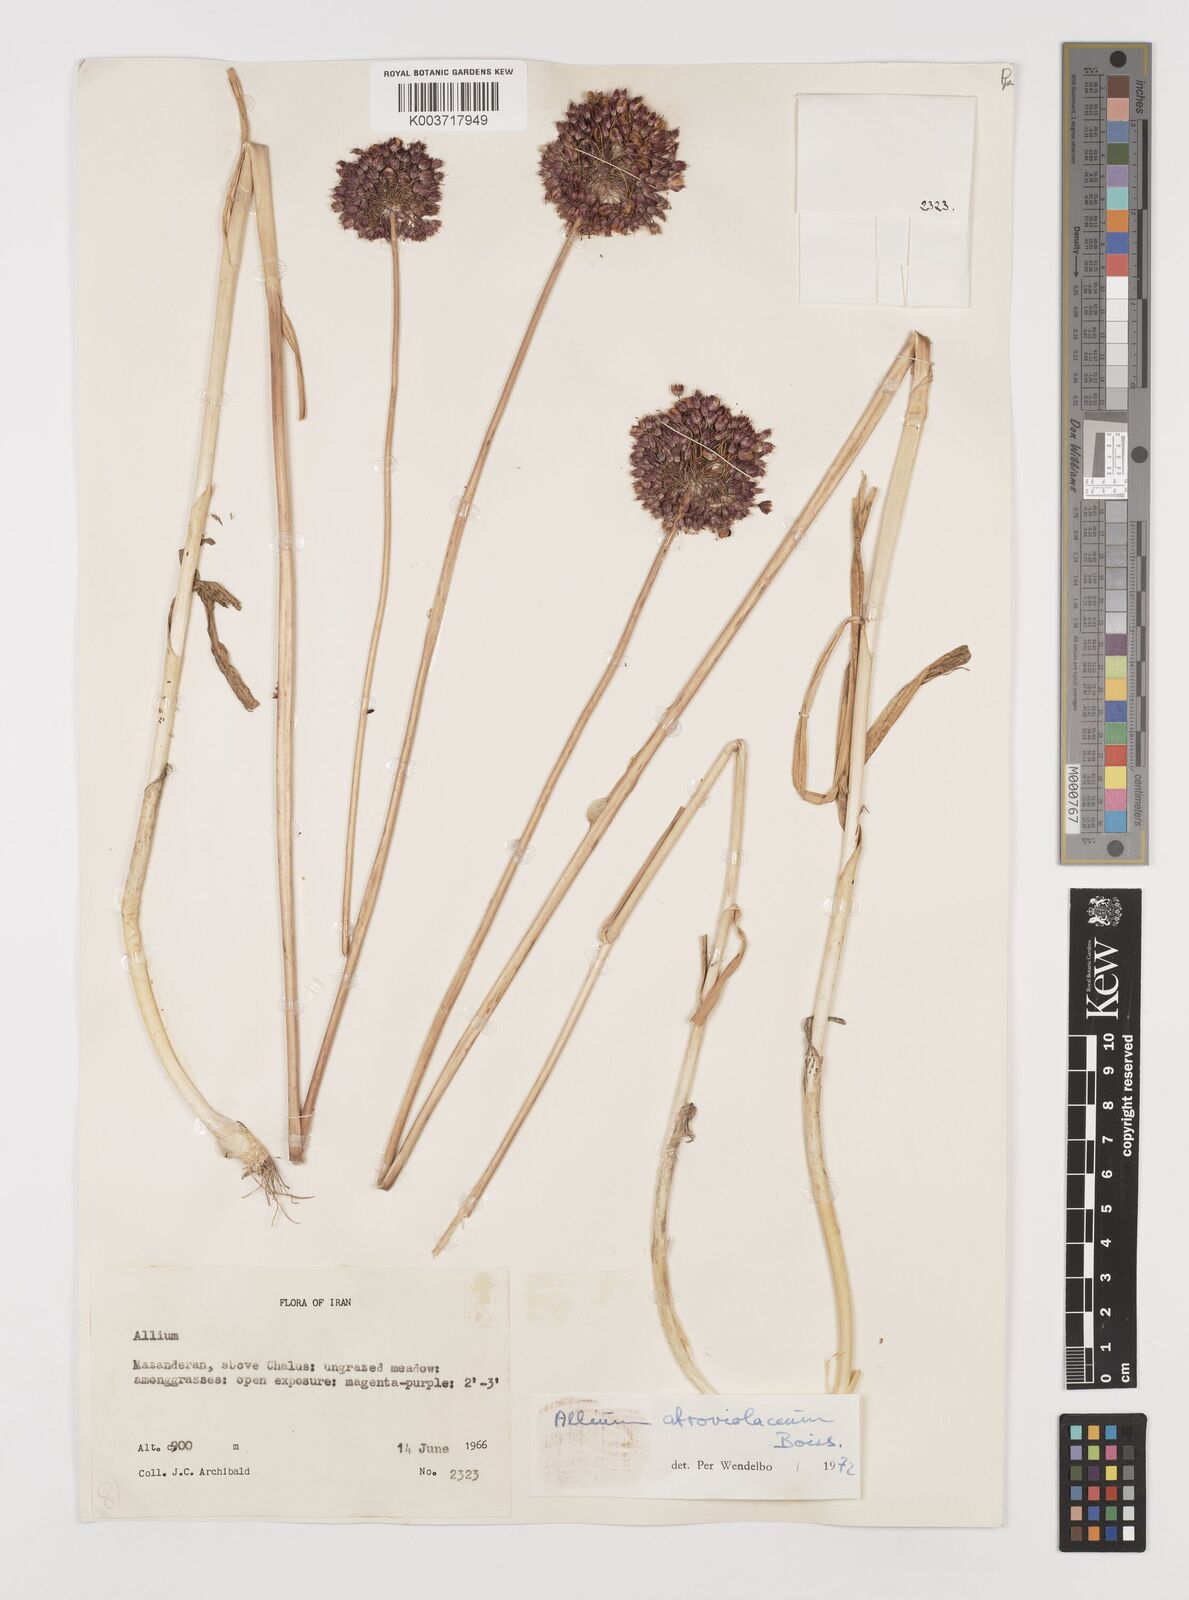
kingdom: Plantae
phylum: Tracheophyta
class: Liliopsida
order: Asparagales
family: Amaryllidaceae
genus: Allium
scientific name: Allium atroviolaceum
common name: Broadleaf wild leek
